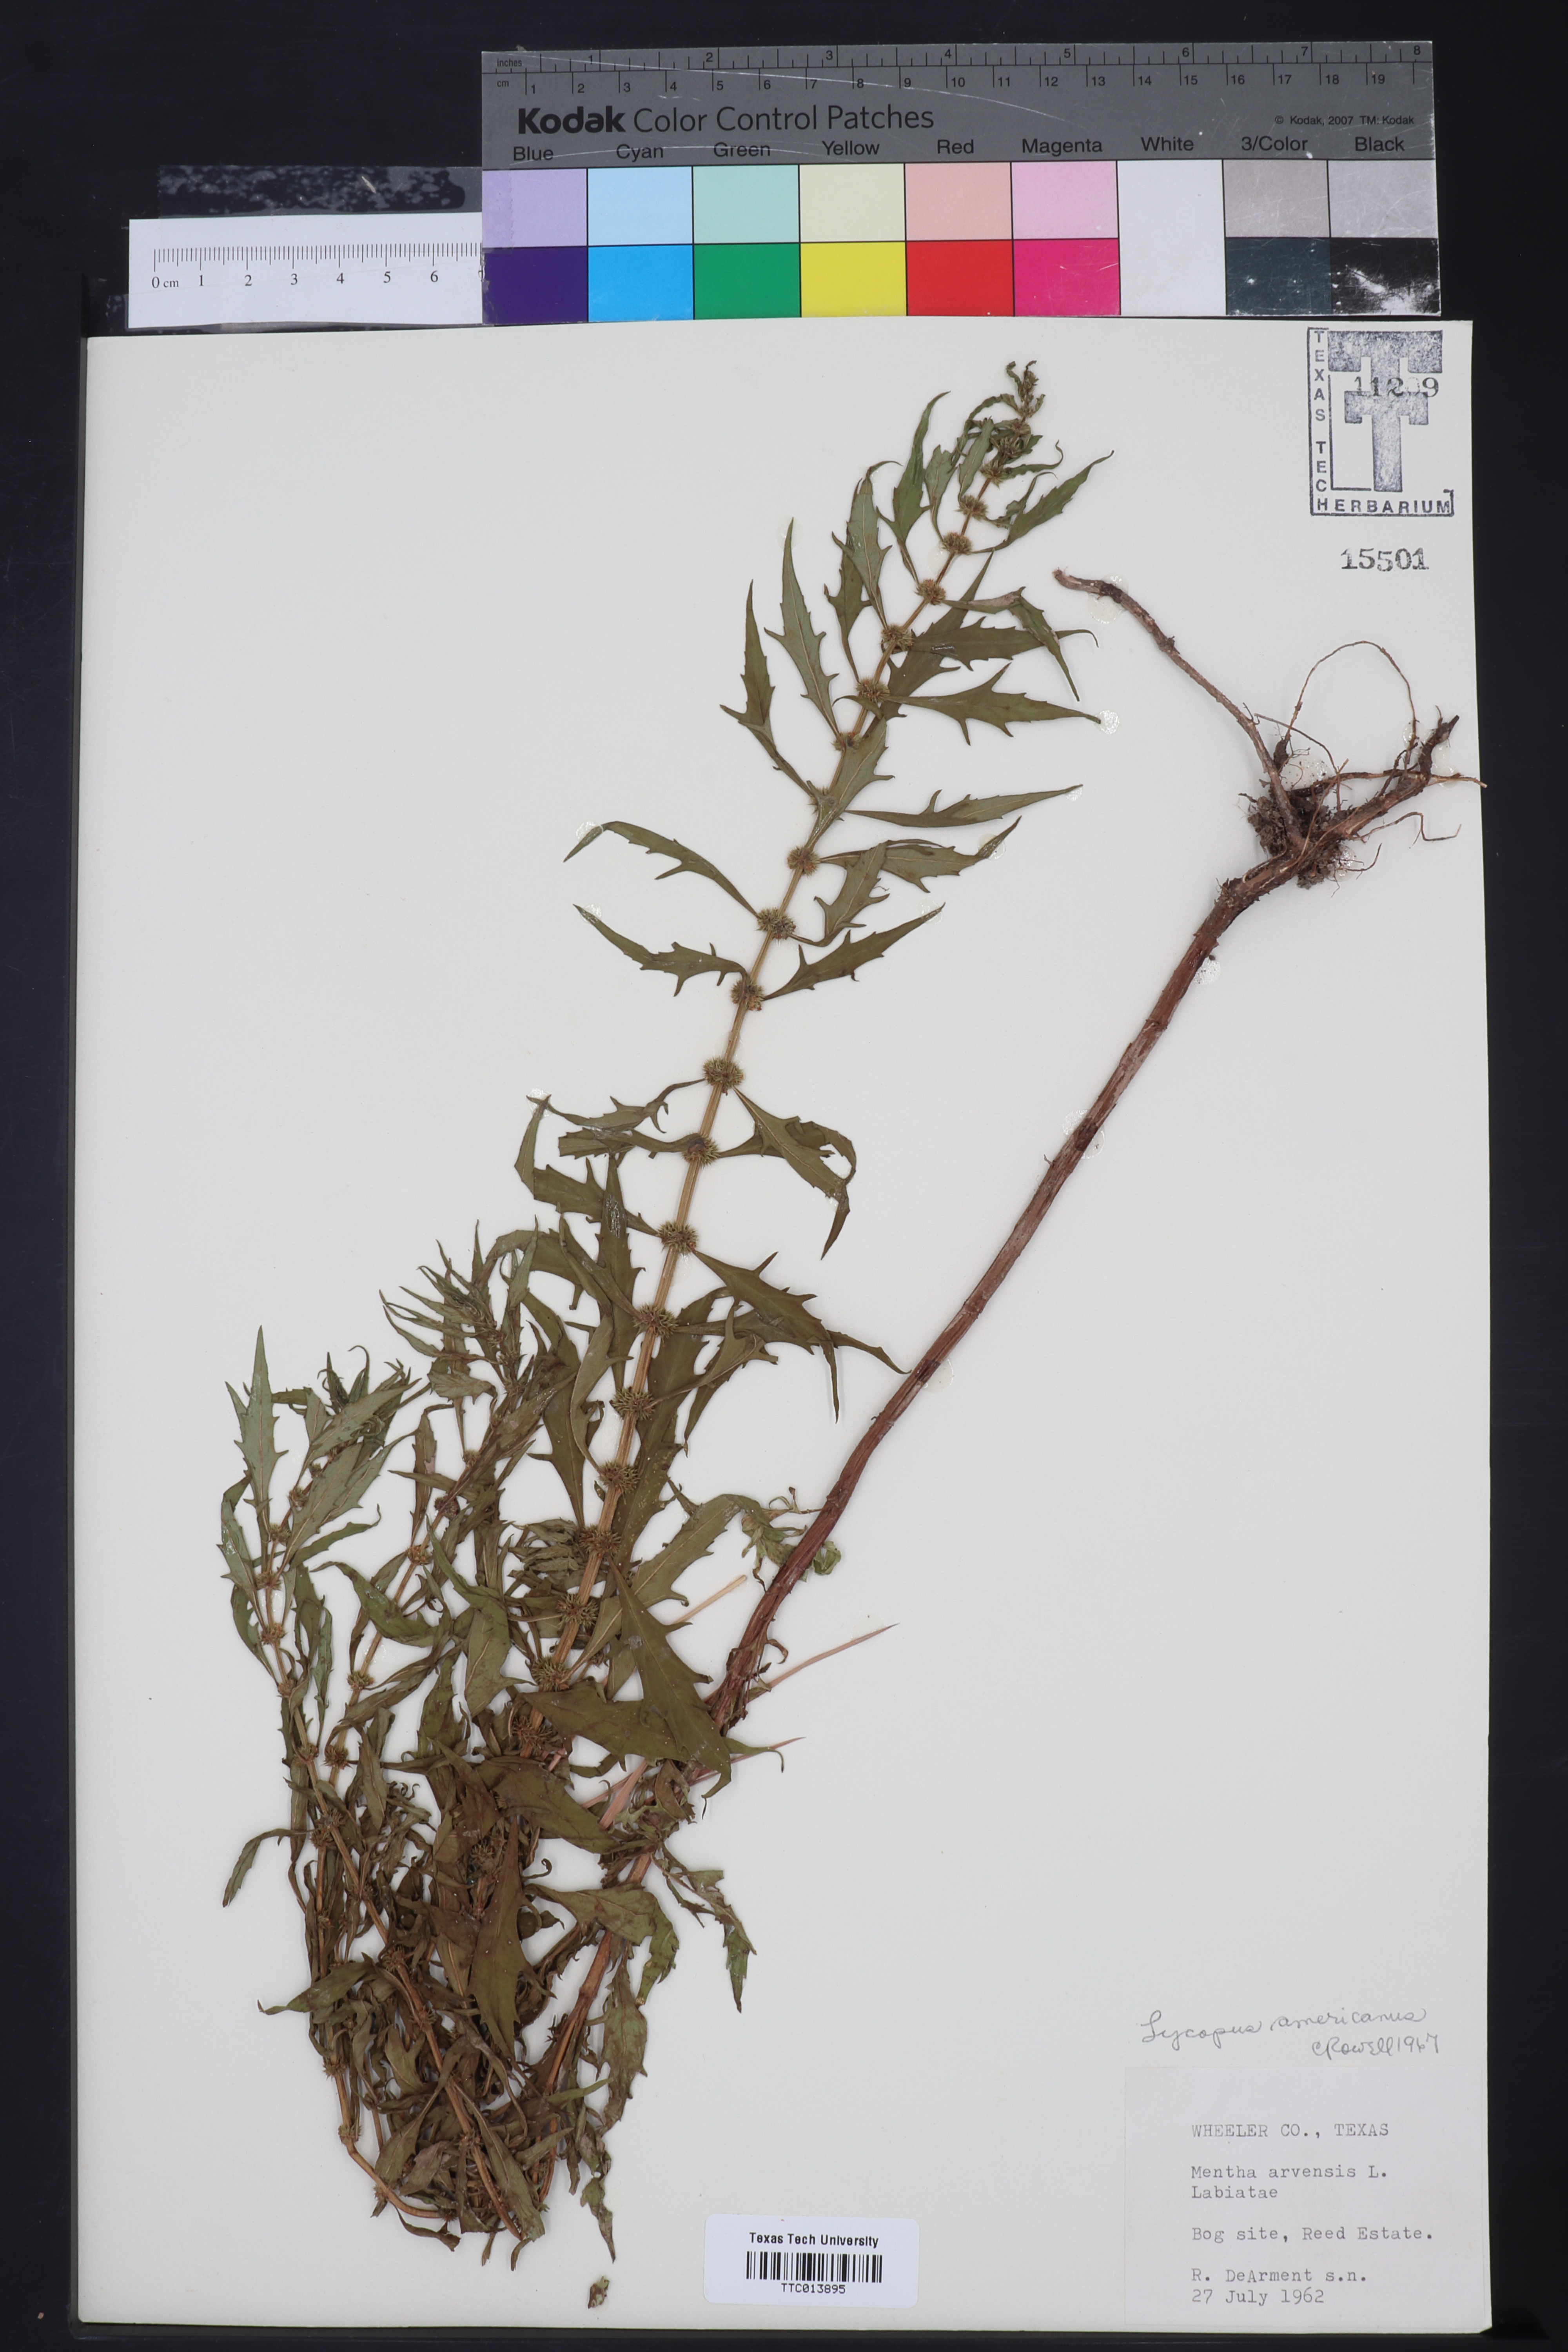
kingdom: Plantae
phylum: Tracheophyta
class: Magnoliopsida
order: Lamiales
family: Lamiaceae
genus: Lycopus
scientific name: Lycopus americanus
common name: American bugleweed
